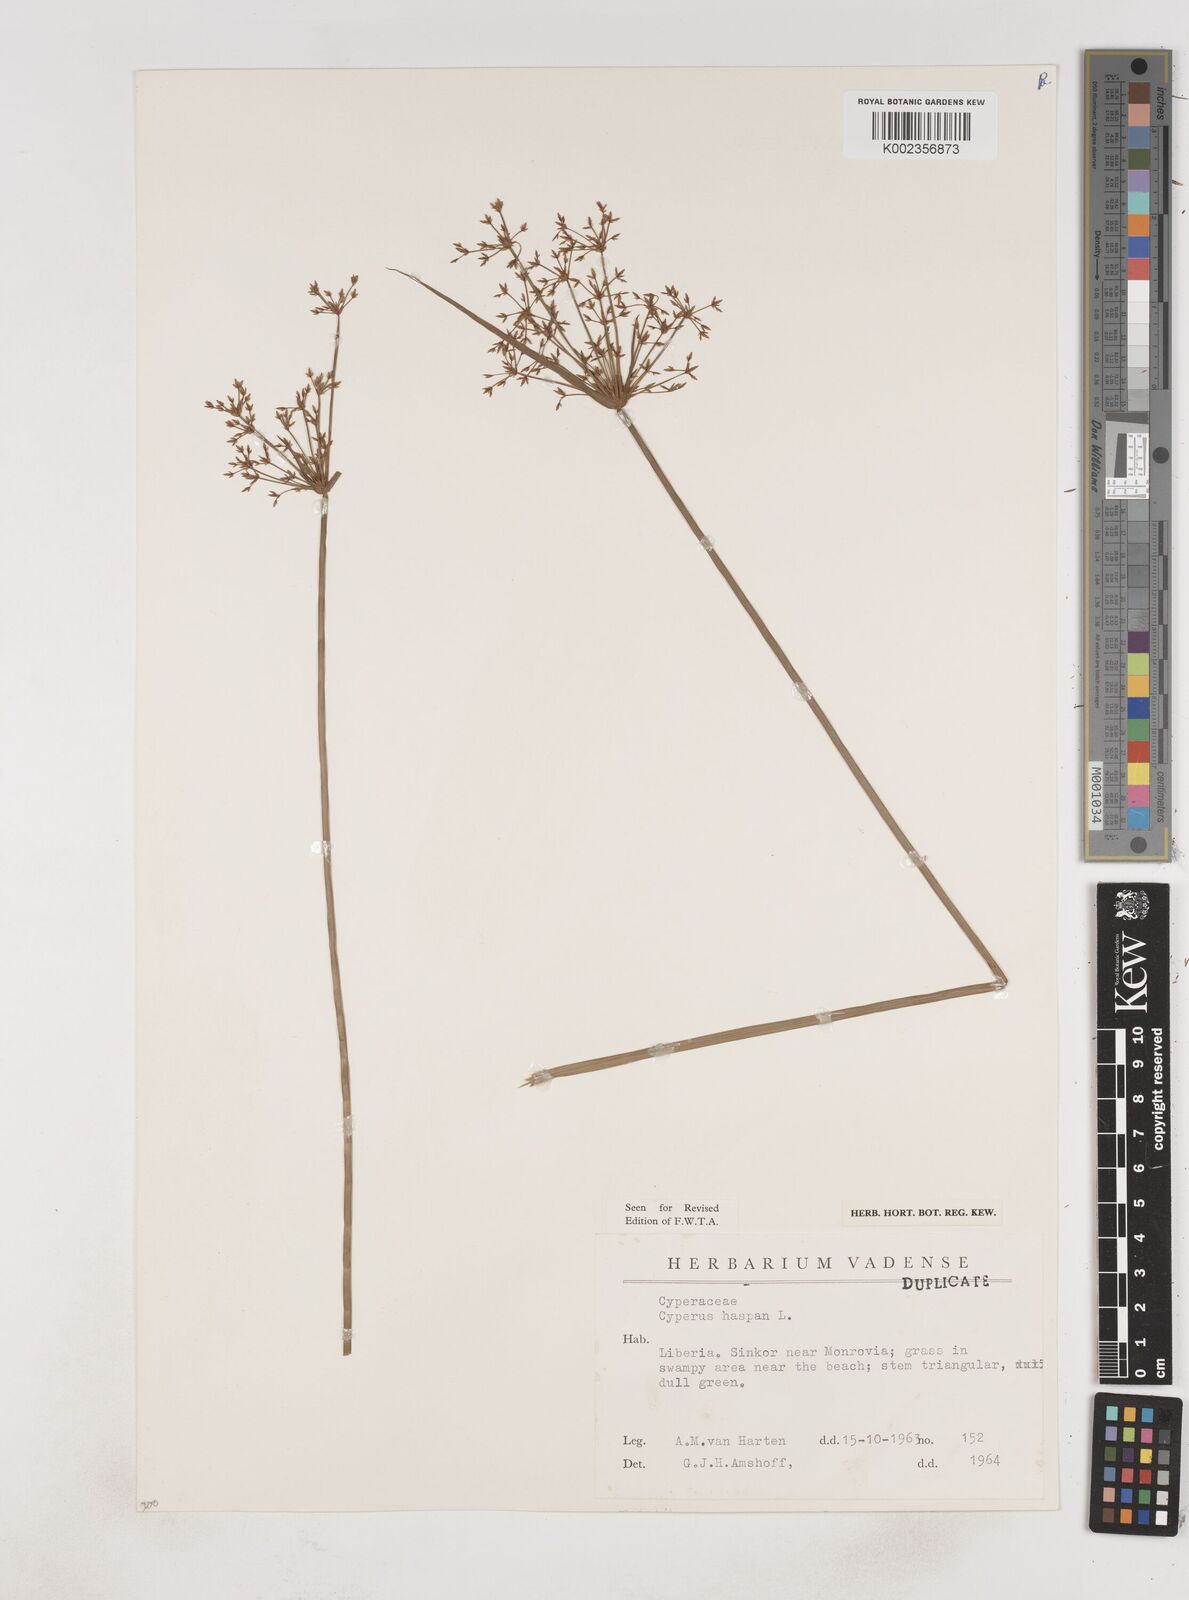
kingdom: Plantae
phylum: Tracheophyta
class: Liliopsida
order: Poales
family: Cyperaceae
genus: Cyperus
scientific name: Cyperus haspan
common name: Haspan flatsedge
